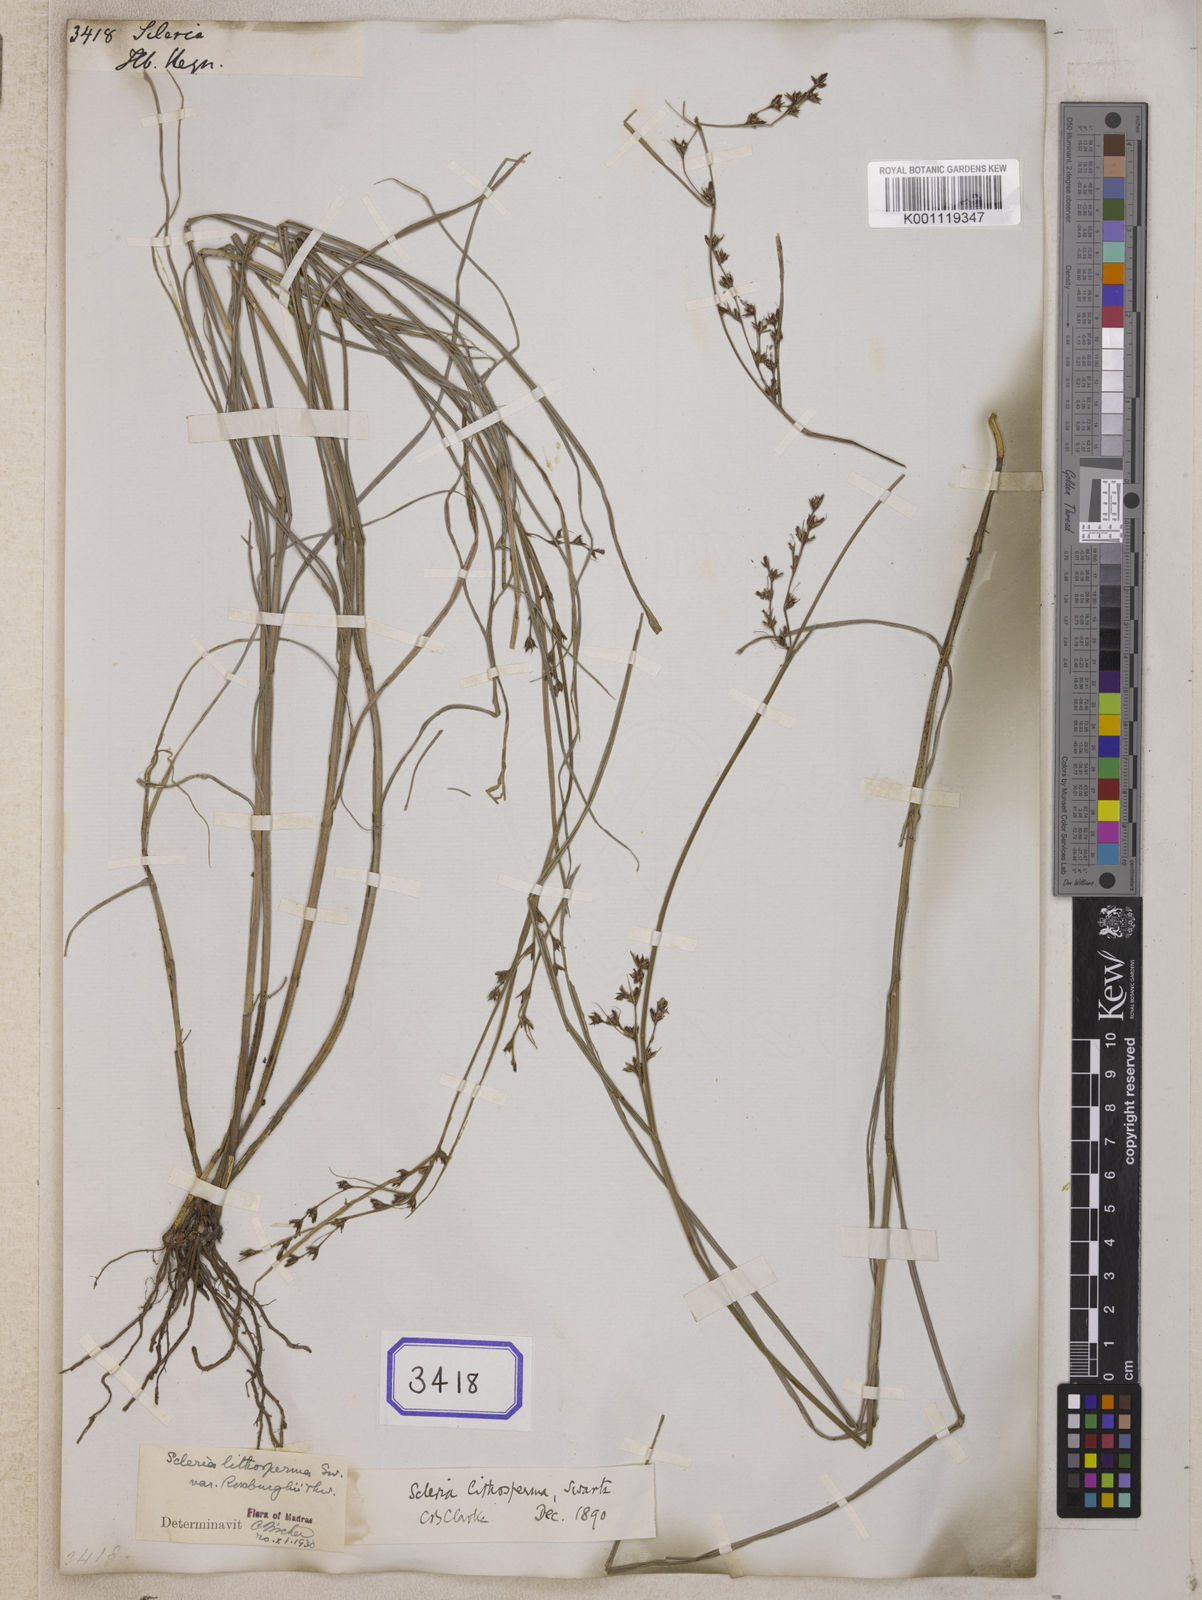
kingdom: Plantae
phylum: Tracheophyta
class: Liliopsida
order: Poales
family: Cyperaceae
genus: Scleria
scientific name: Scleria
